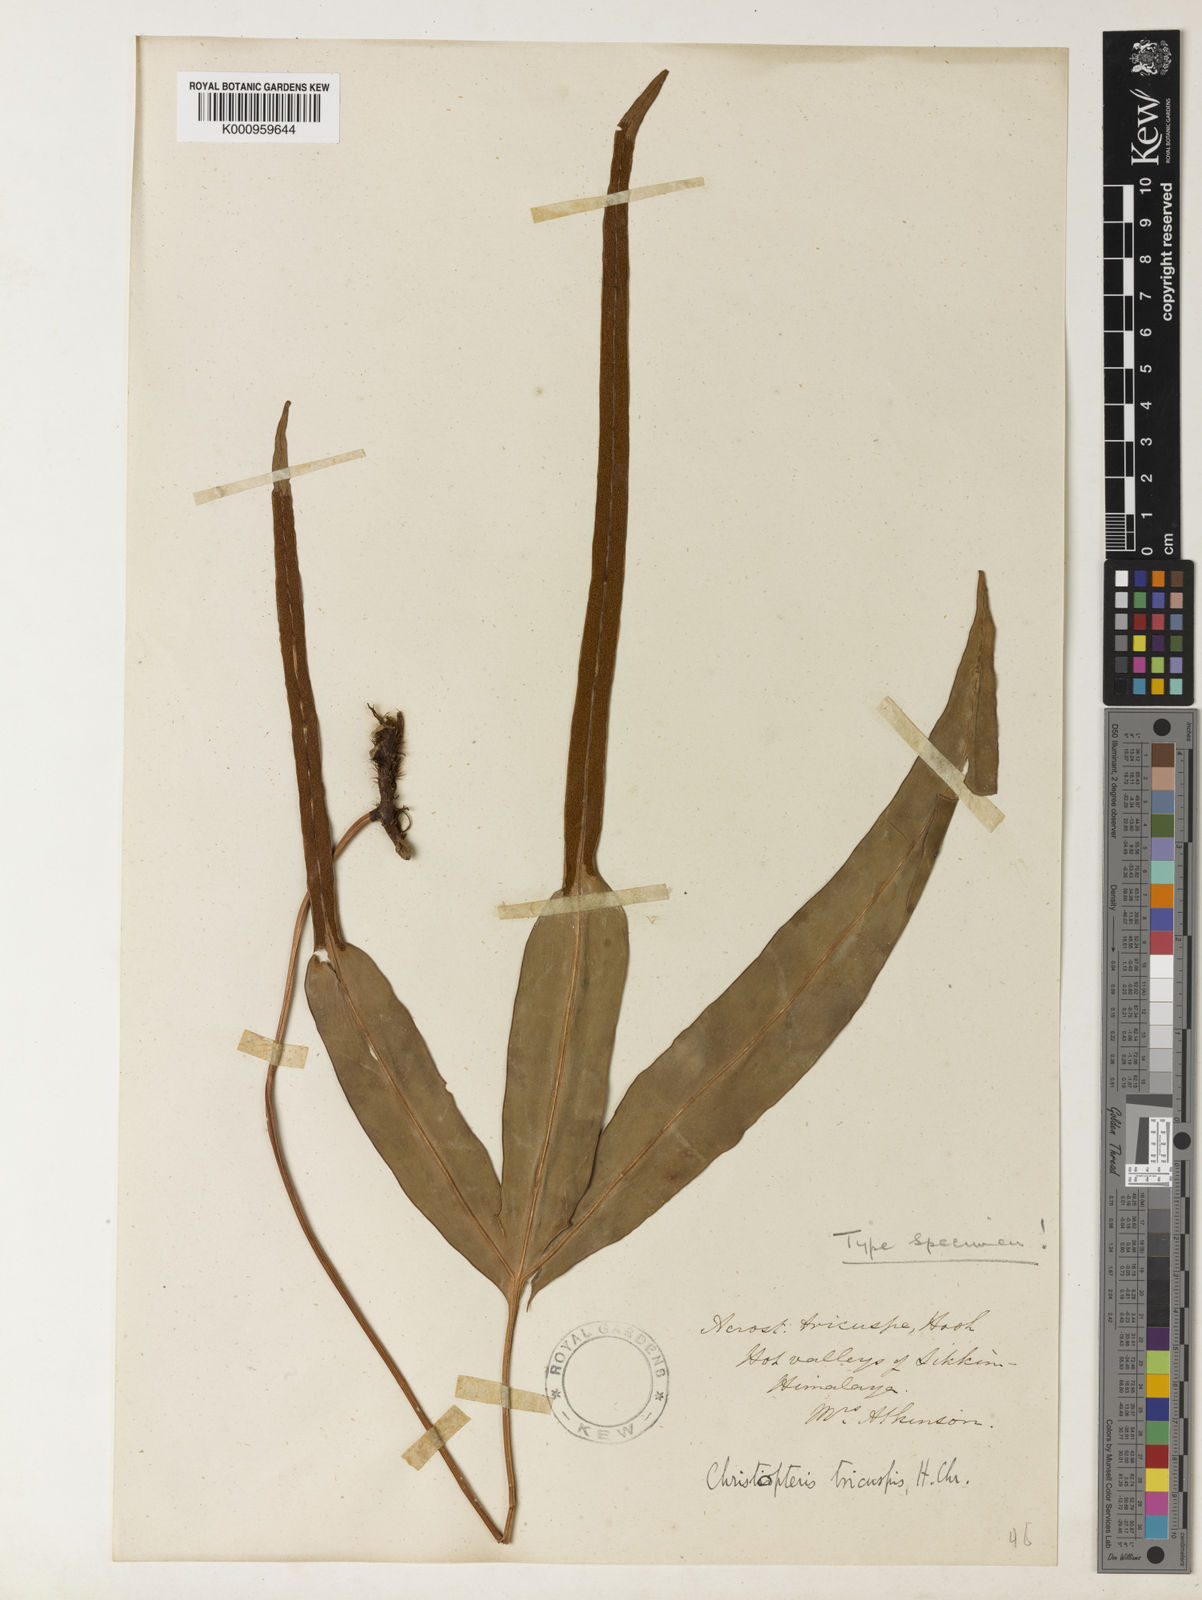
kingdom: Plantae
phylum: Tracheophyta
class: Polypodiopsida
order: Polypodiales
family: Polypodiaceae
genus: Drynaria
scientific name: Drynaria tricuspis
